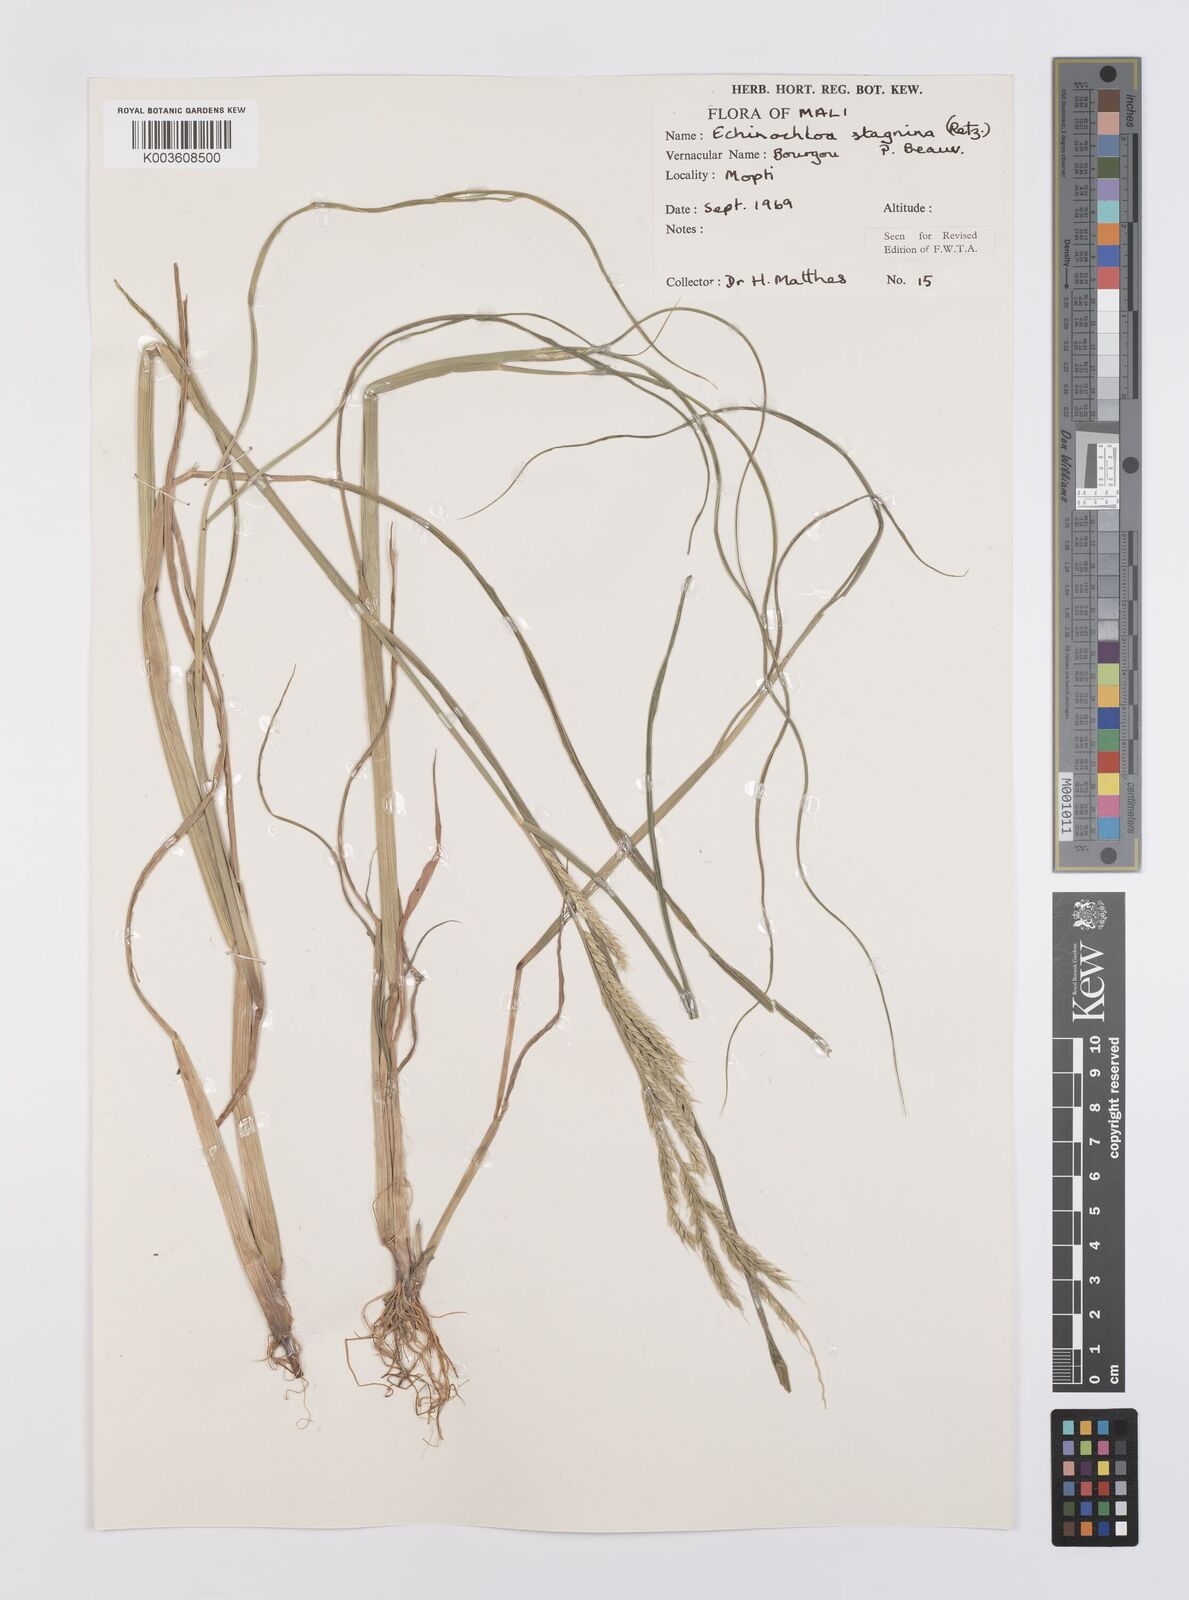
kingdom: Plantae
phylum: Tracheophyta
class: Liliopsida
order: Poales
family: Poaceae
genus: Echinochloa
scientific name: Echinochloa stagnina
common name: Burgu grass
